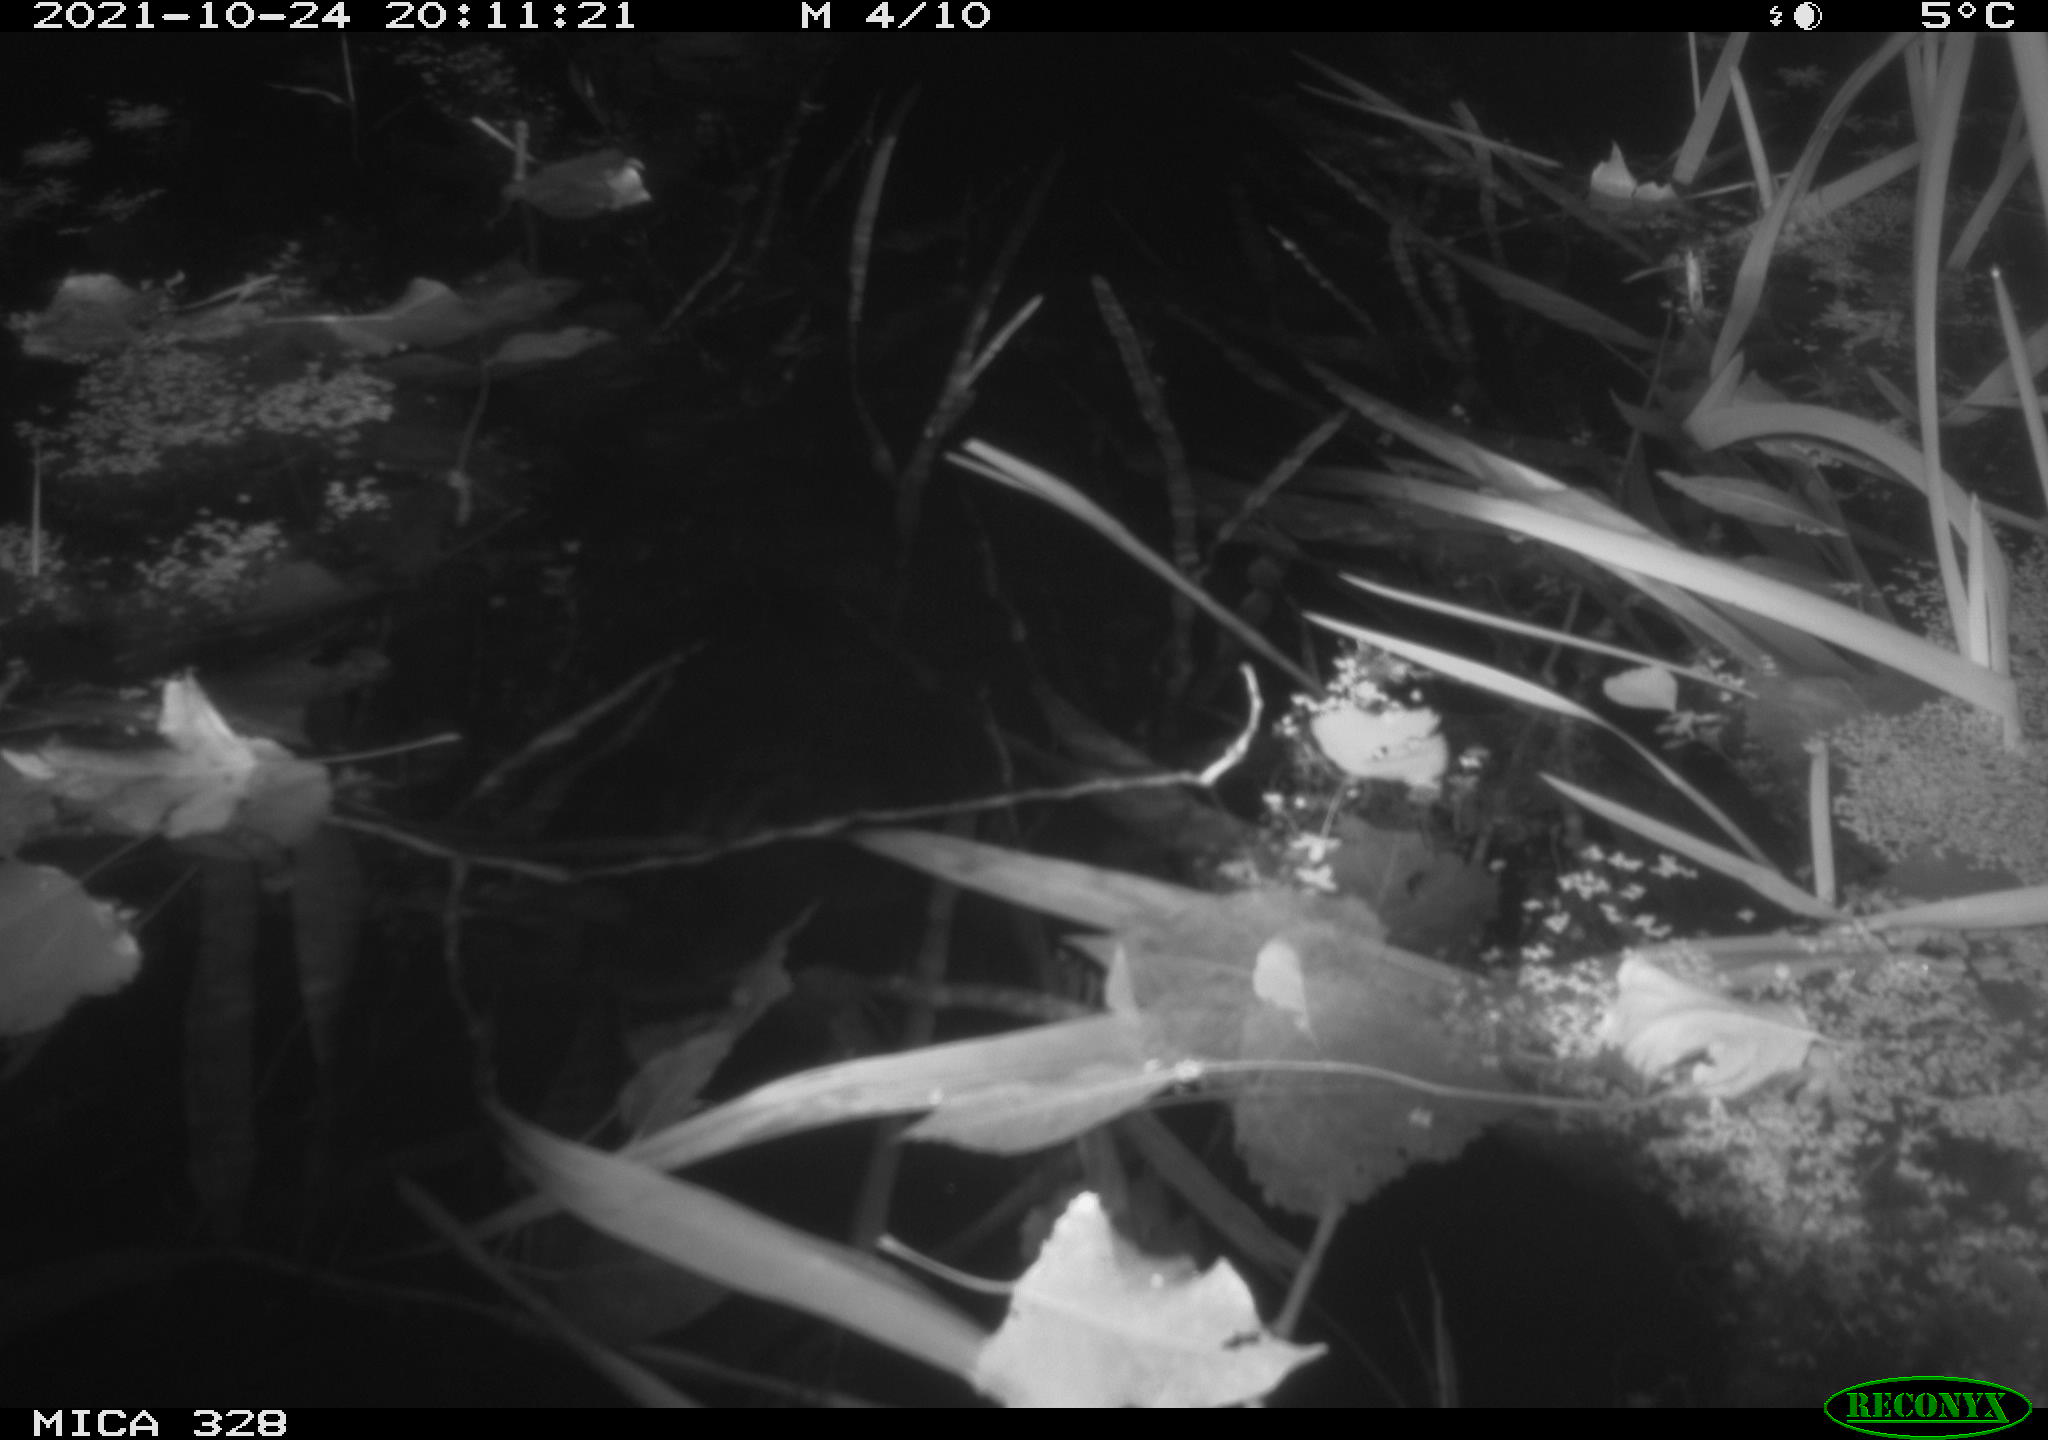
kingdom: Animalia
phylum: Chordata
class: Mammalia
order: Rodentia
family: Cricetidae
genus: Ondatra
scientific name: Ondatra zibethicus
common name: Muskrat
